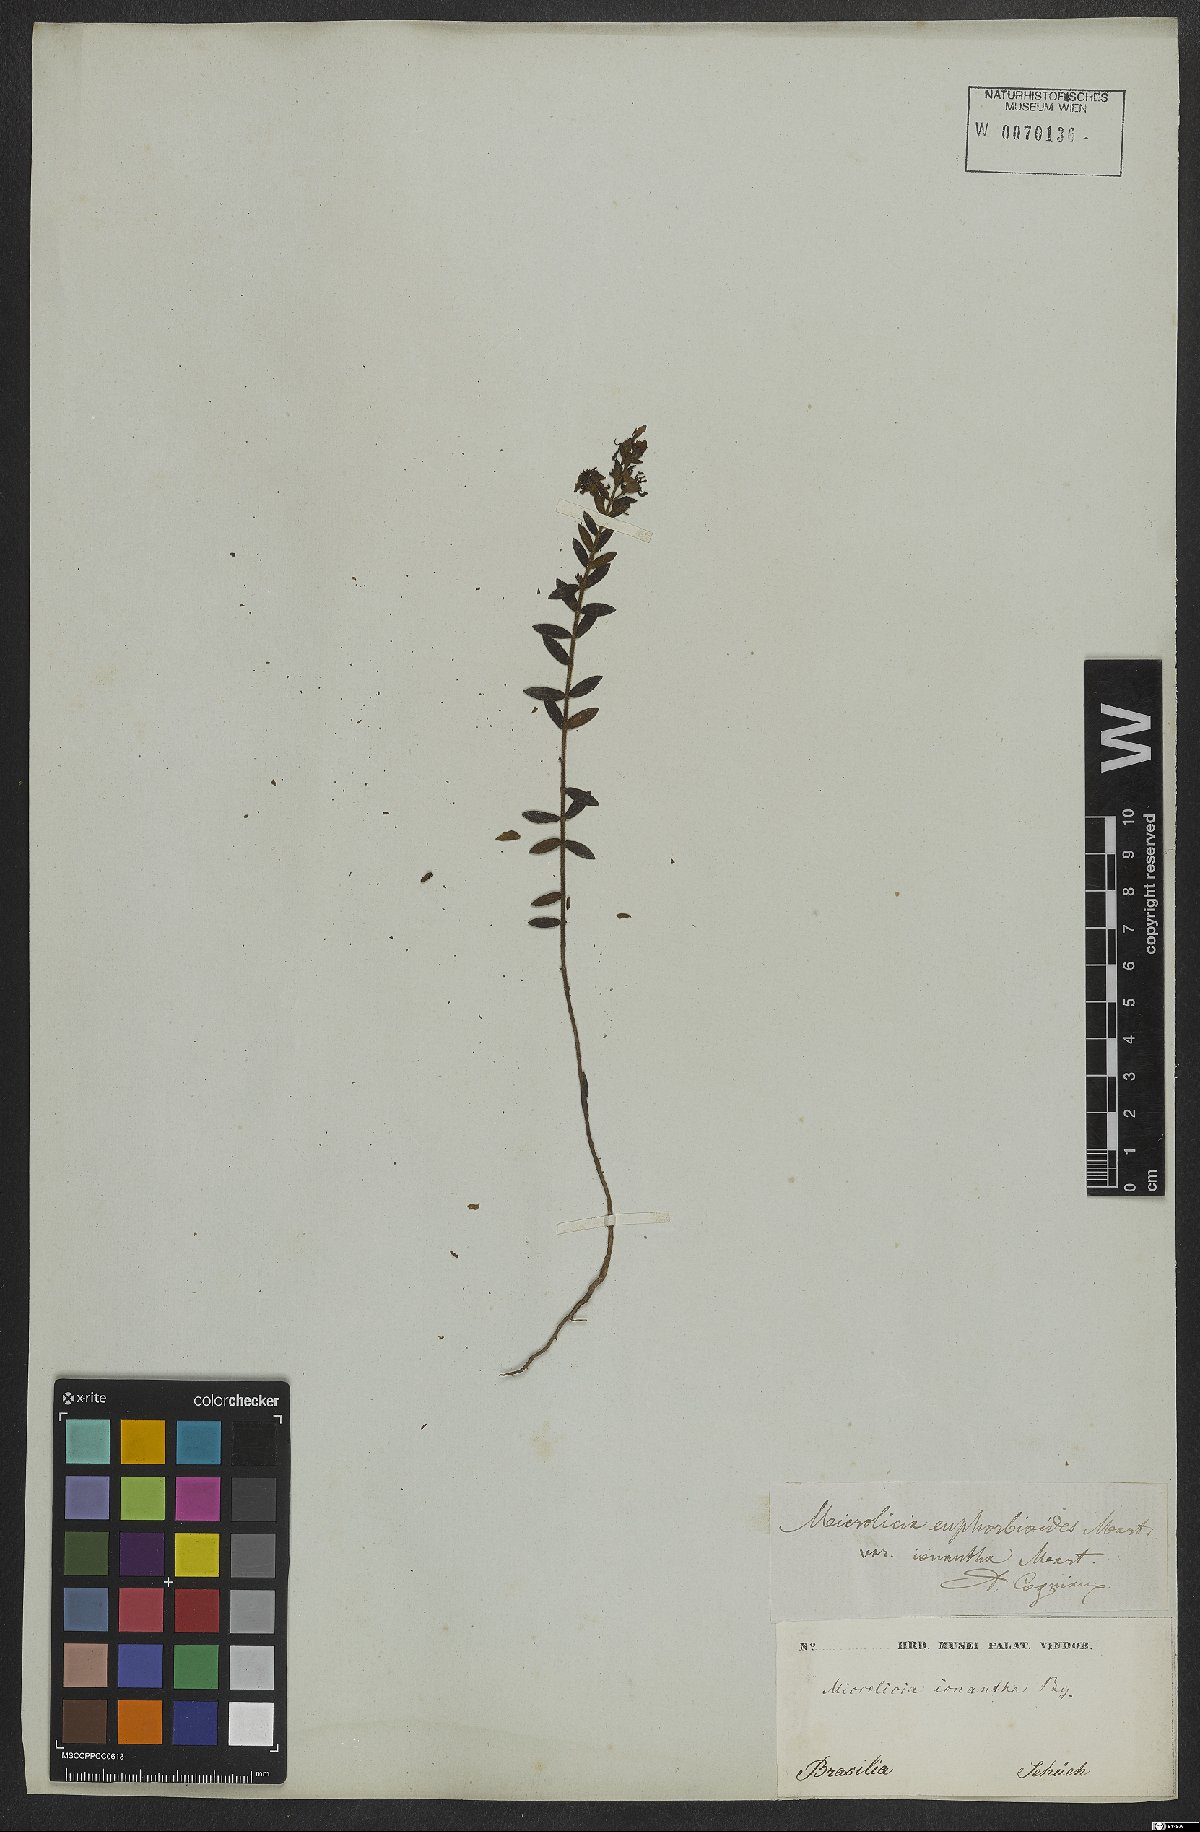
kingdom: Plantae
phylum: Tracheophyta
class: Magnoliopsida
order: Myrtales
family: Melastomataceae
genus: Microlicia
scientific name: Microlicia euphorbioides
